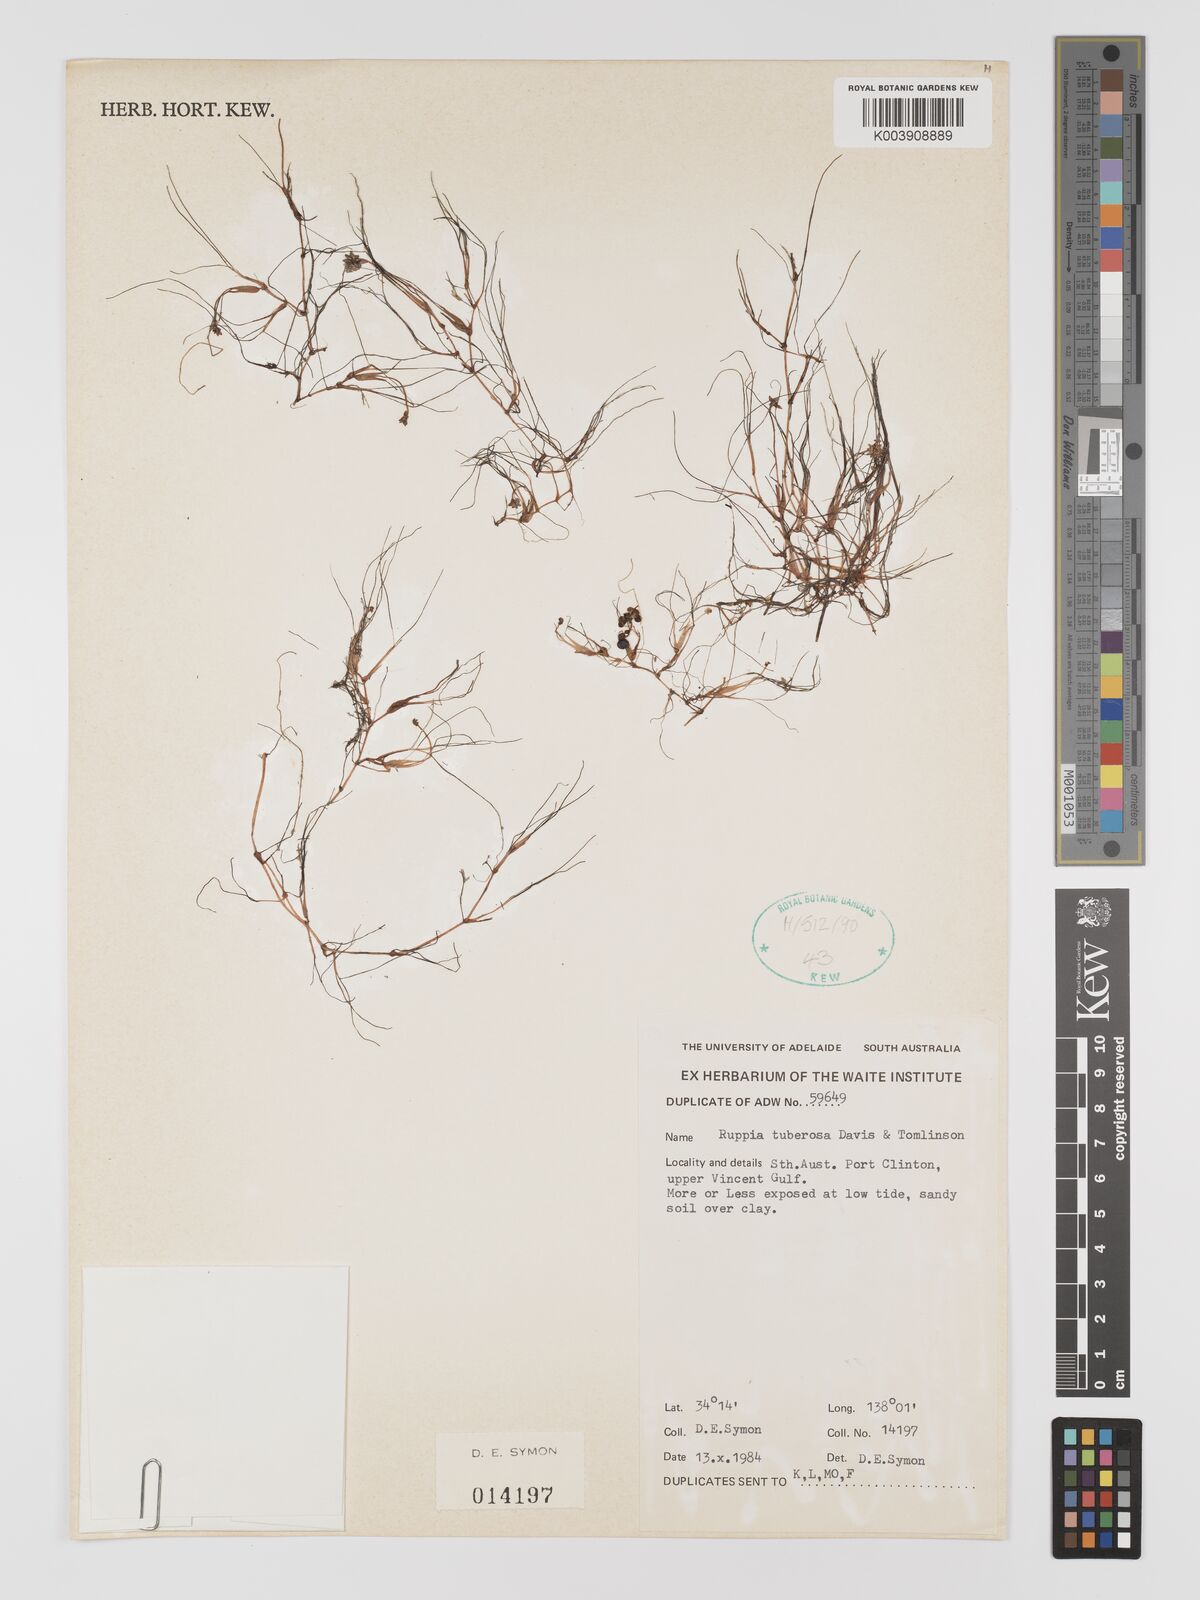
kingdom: Plantae
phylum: Tracheophyta
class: Liliopsida
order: Alismatales
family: Ruppiaceae
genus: Ruppia
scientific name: Ruppia tuberosa
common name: Species code: rt
